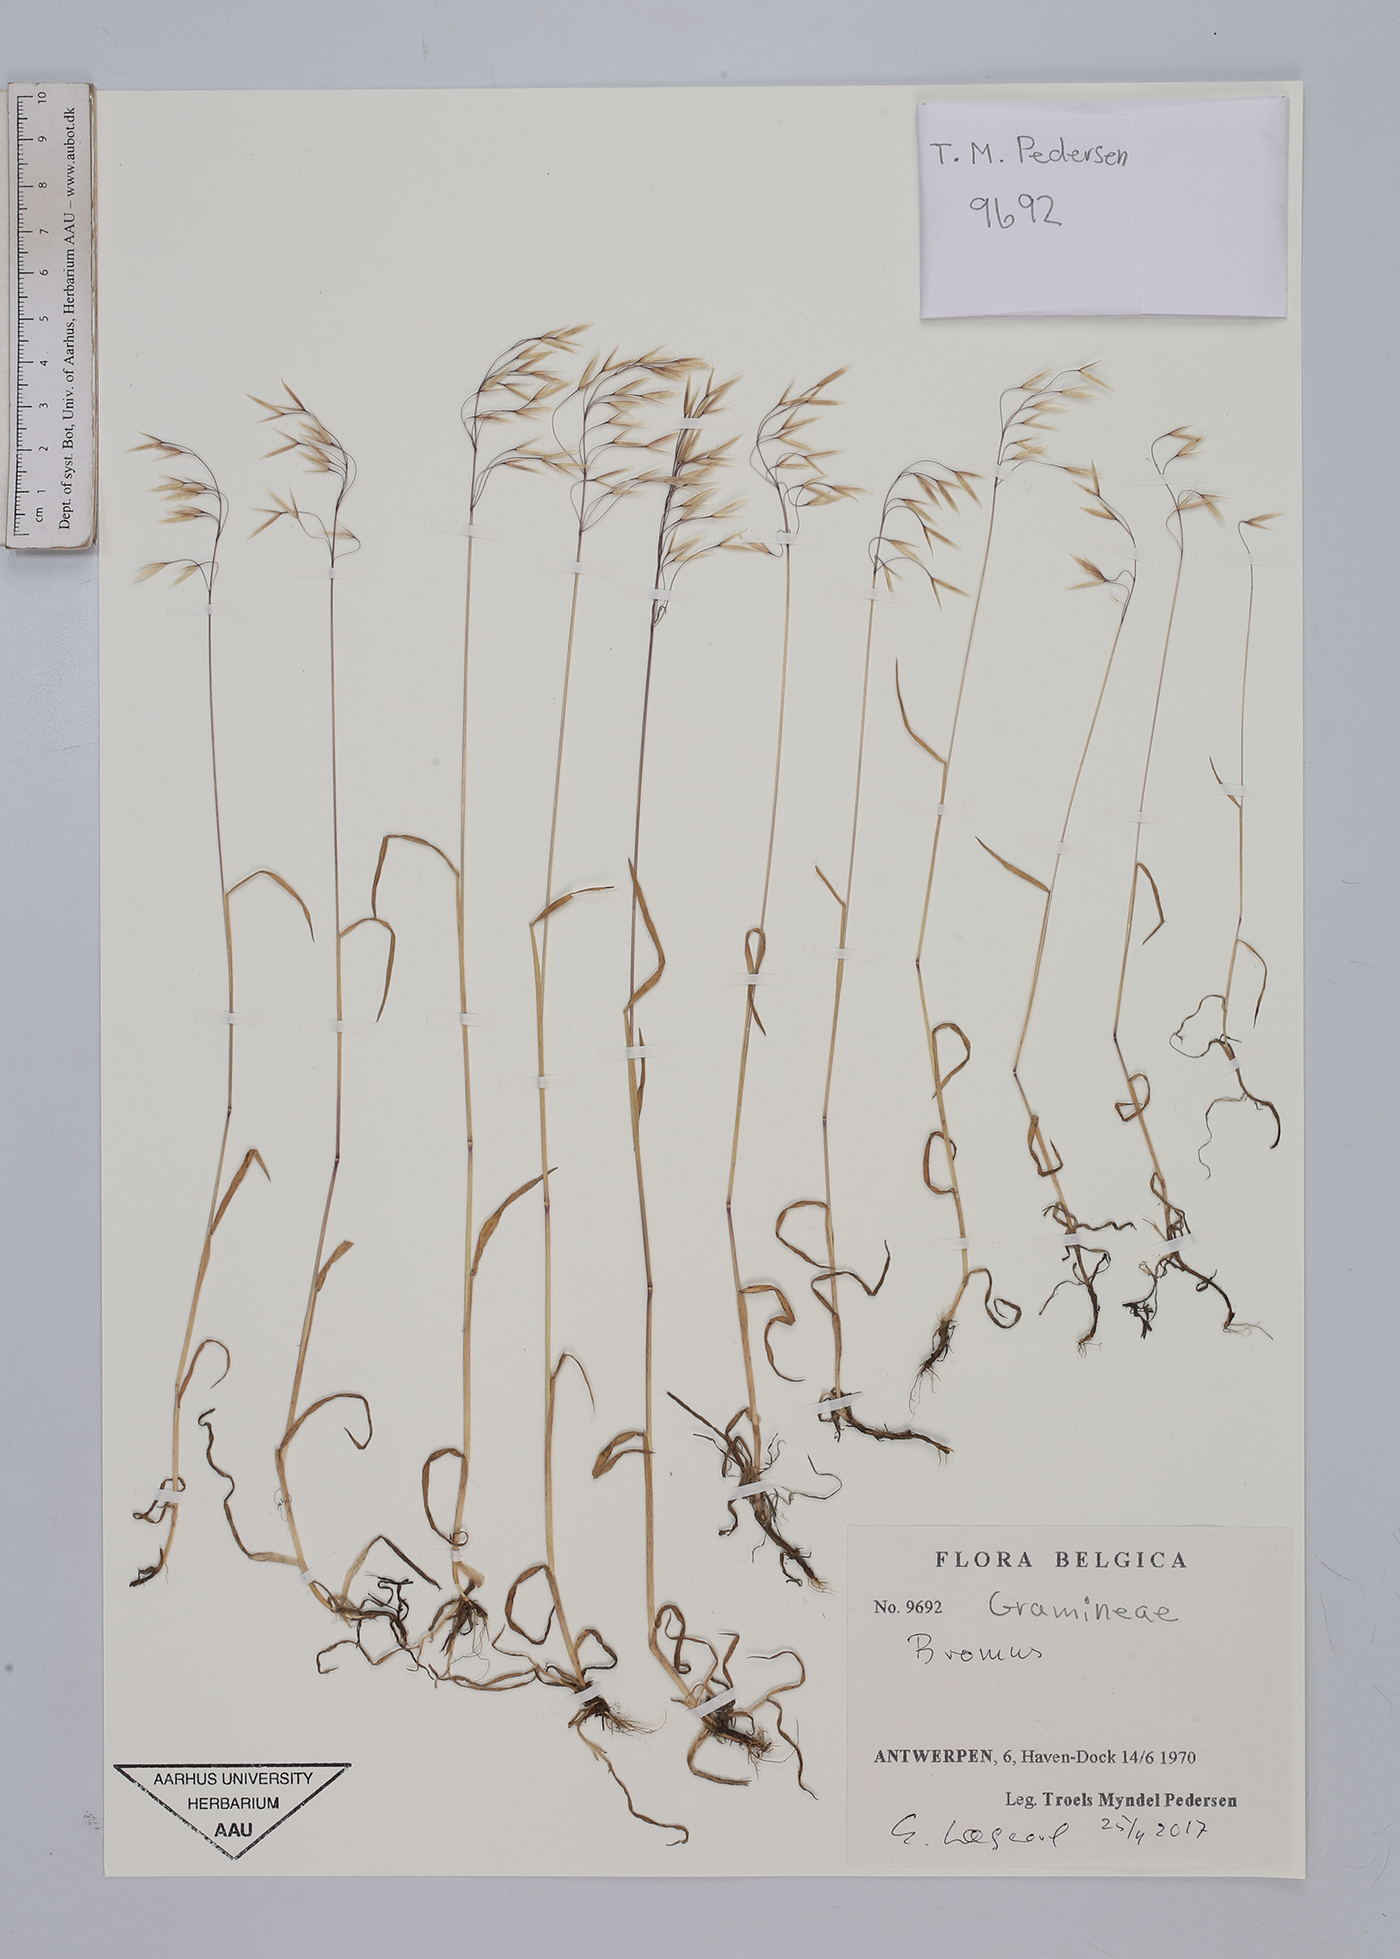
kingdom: Plantae
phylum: Tracheophyta
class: Liliopsida
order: Poales
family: Poaceae
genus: Bromus
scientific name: Bromus
